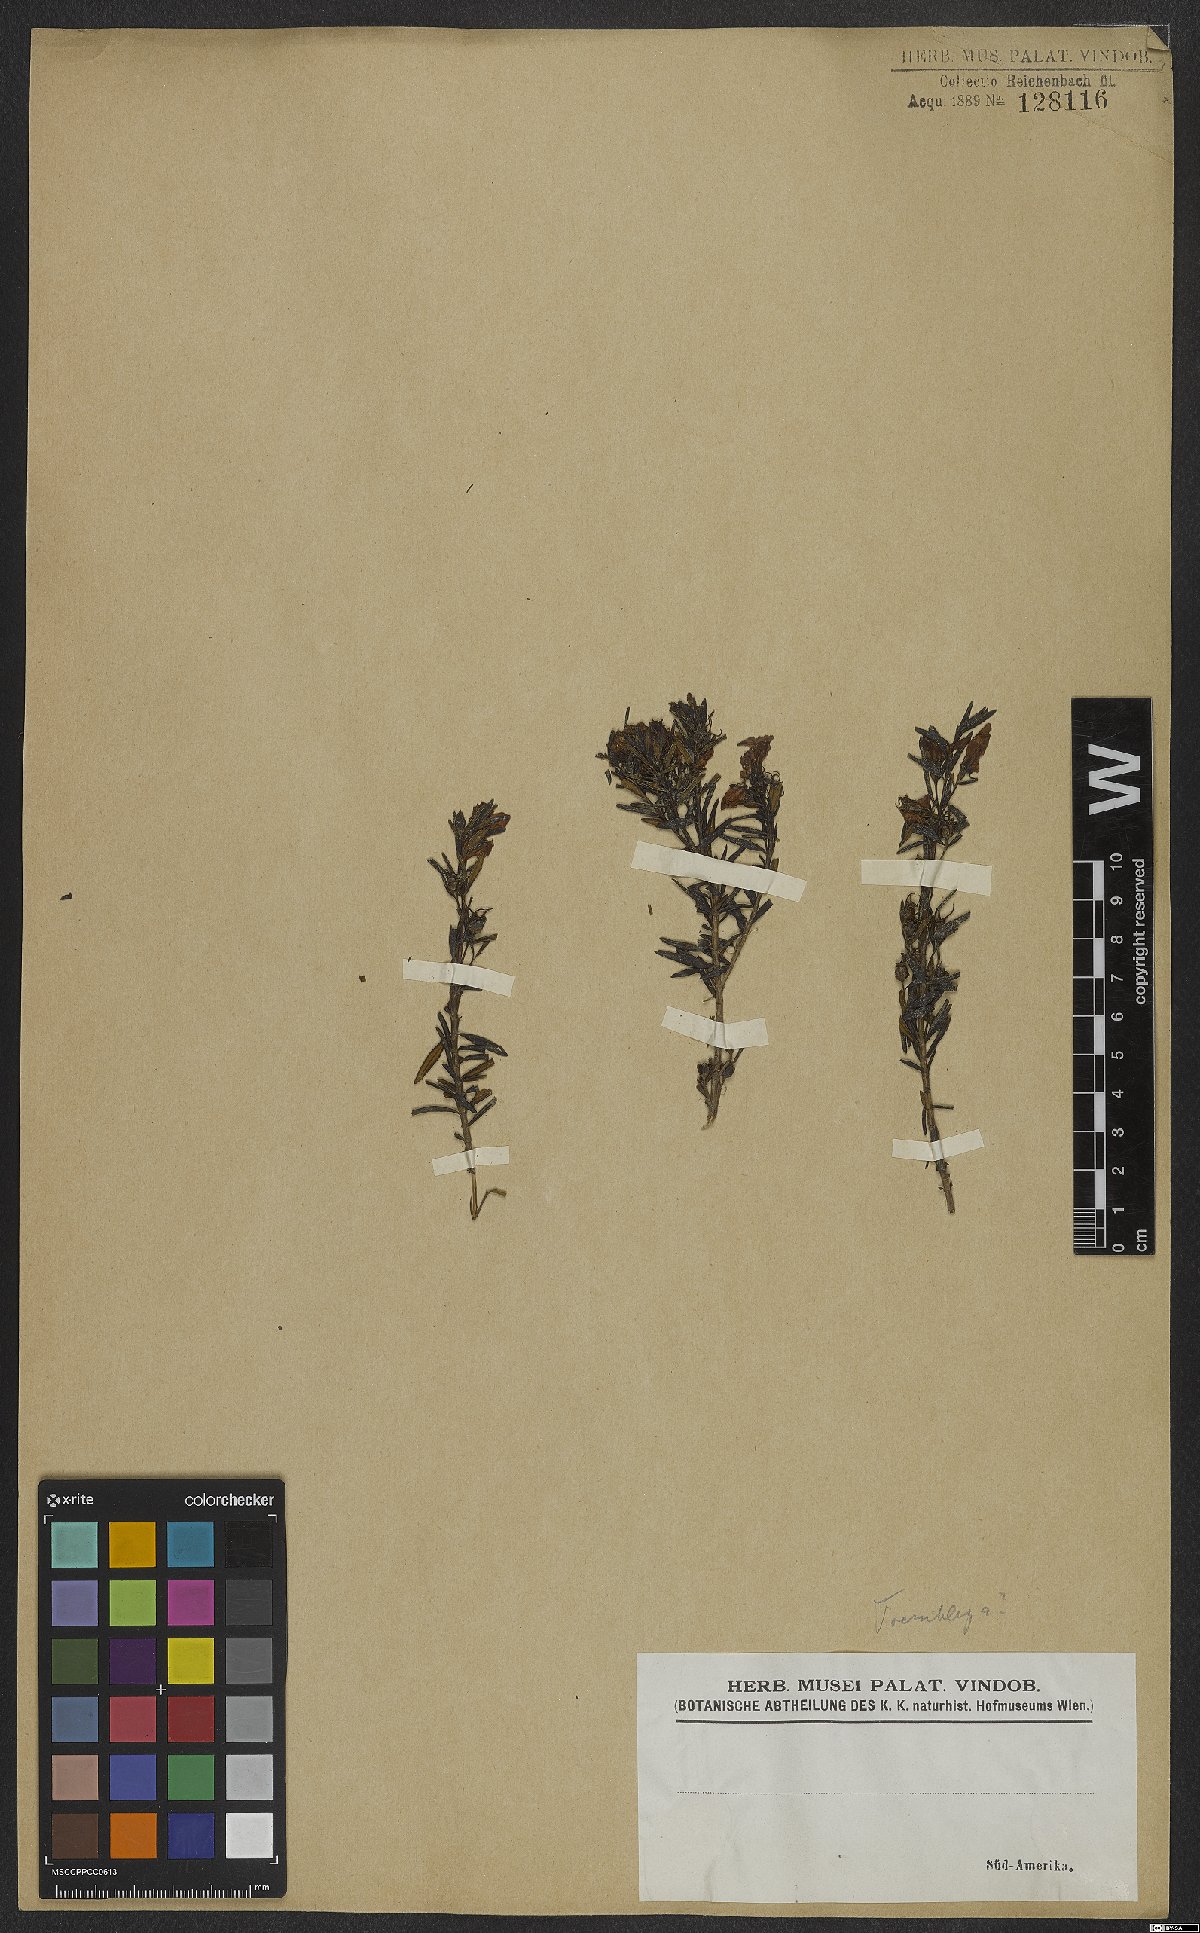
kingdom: Plantae
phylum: Tracheophyta
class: Magnoliopsida
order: Myrtales
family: Melastomataceae
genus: Microlicia
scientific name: Microlicia
